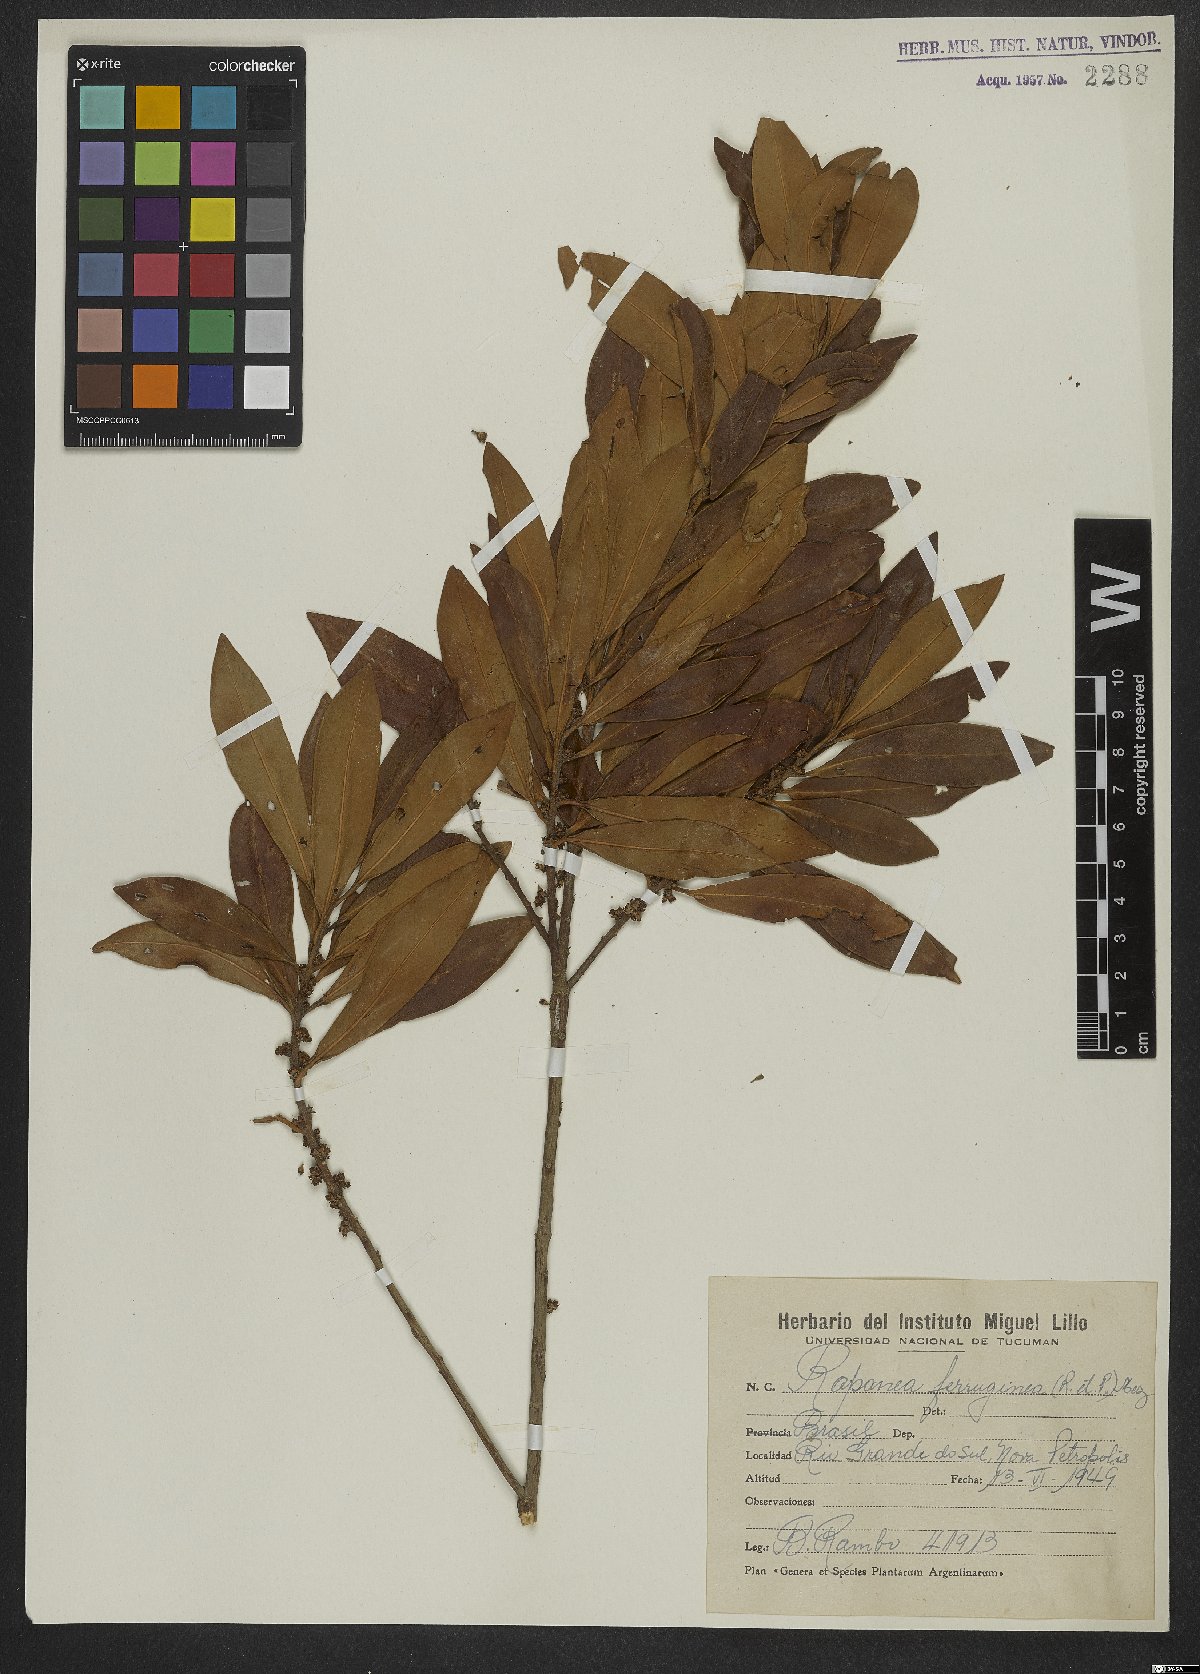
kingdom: Plantae
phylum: Tracheophyta
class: Magnoliopsida
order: Ericales
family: Primulaceae
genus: Myrsine
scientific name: Myrsine coriacea
